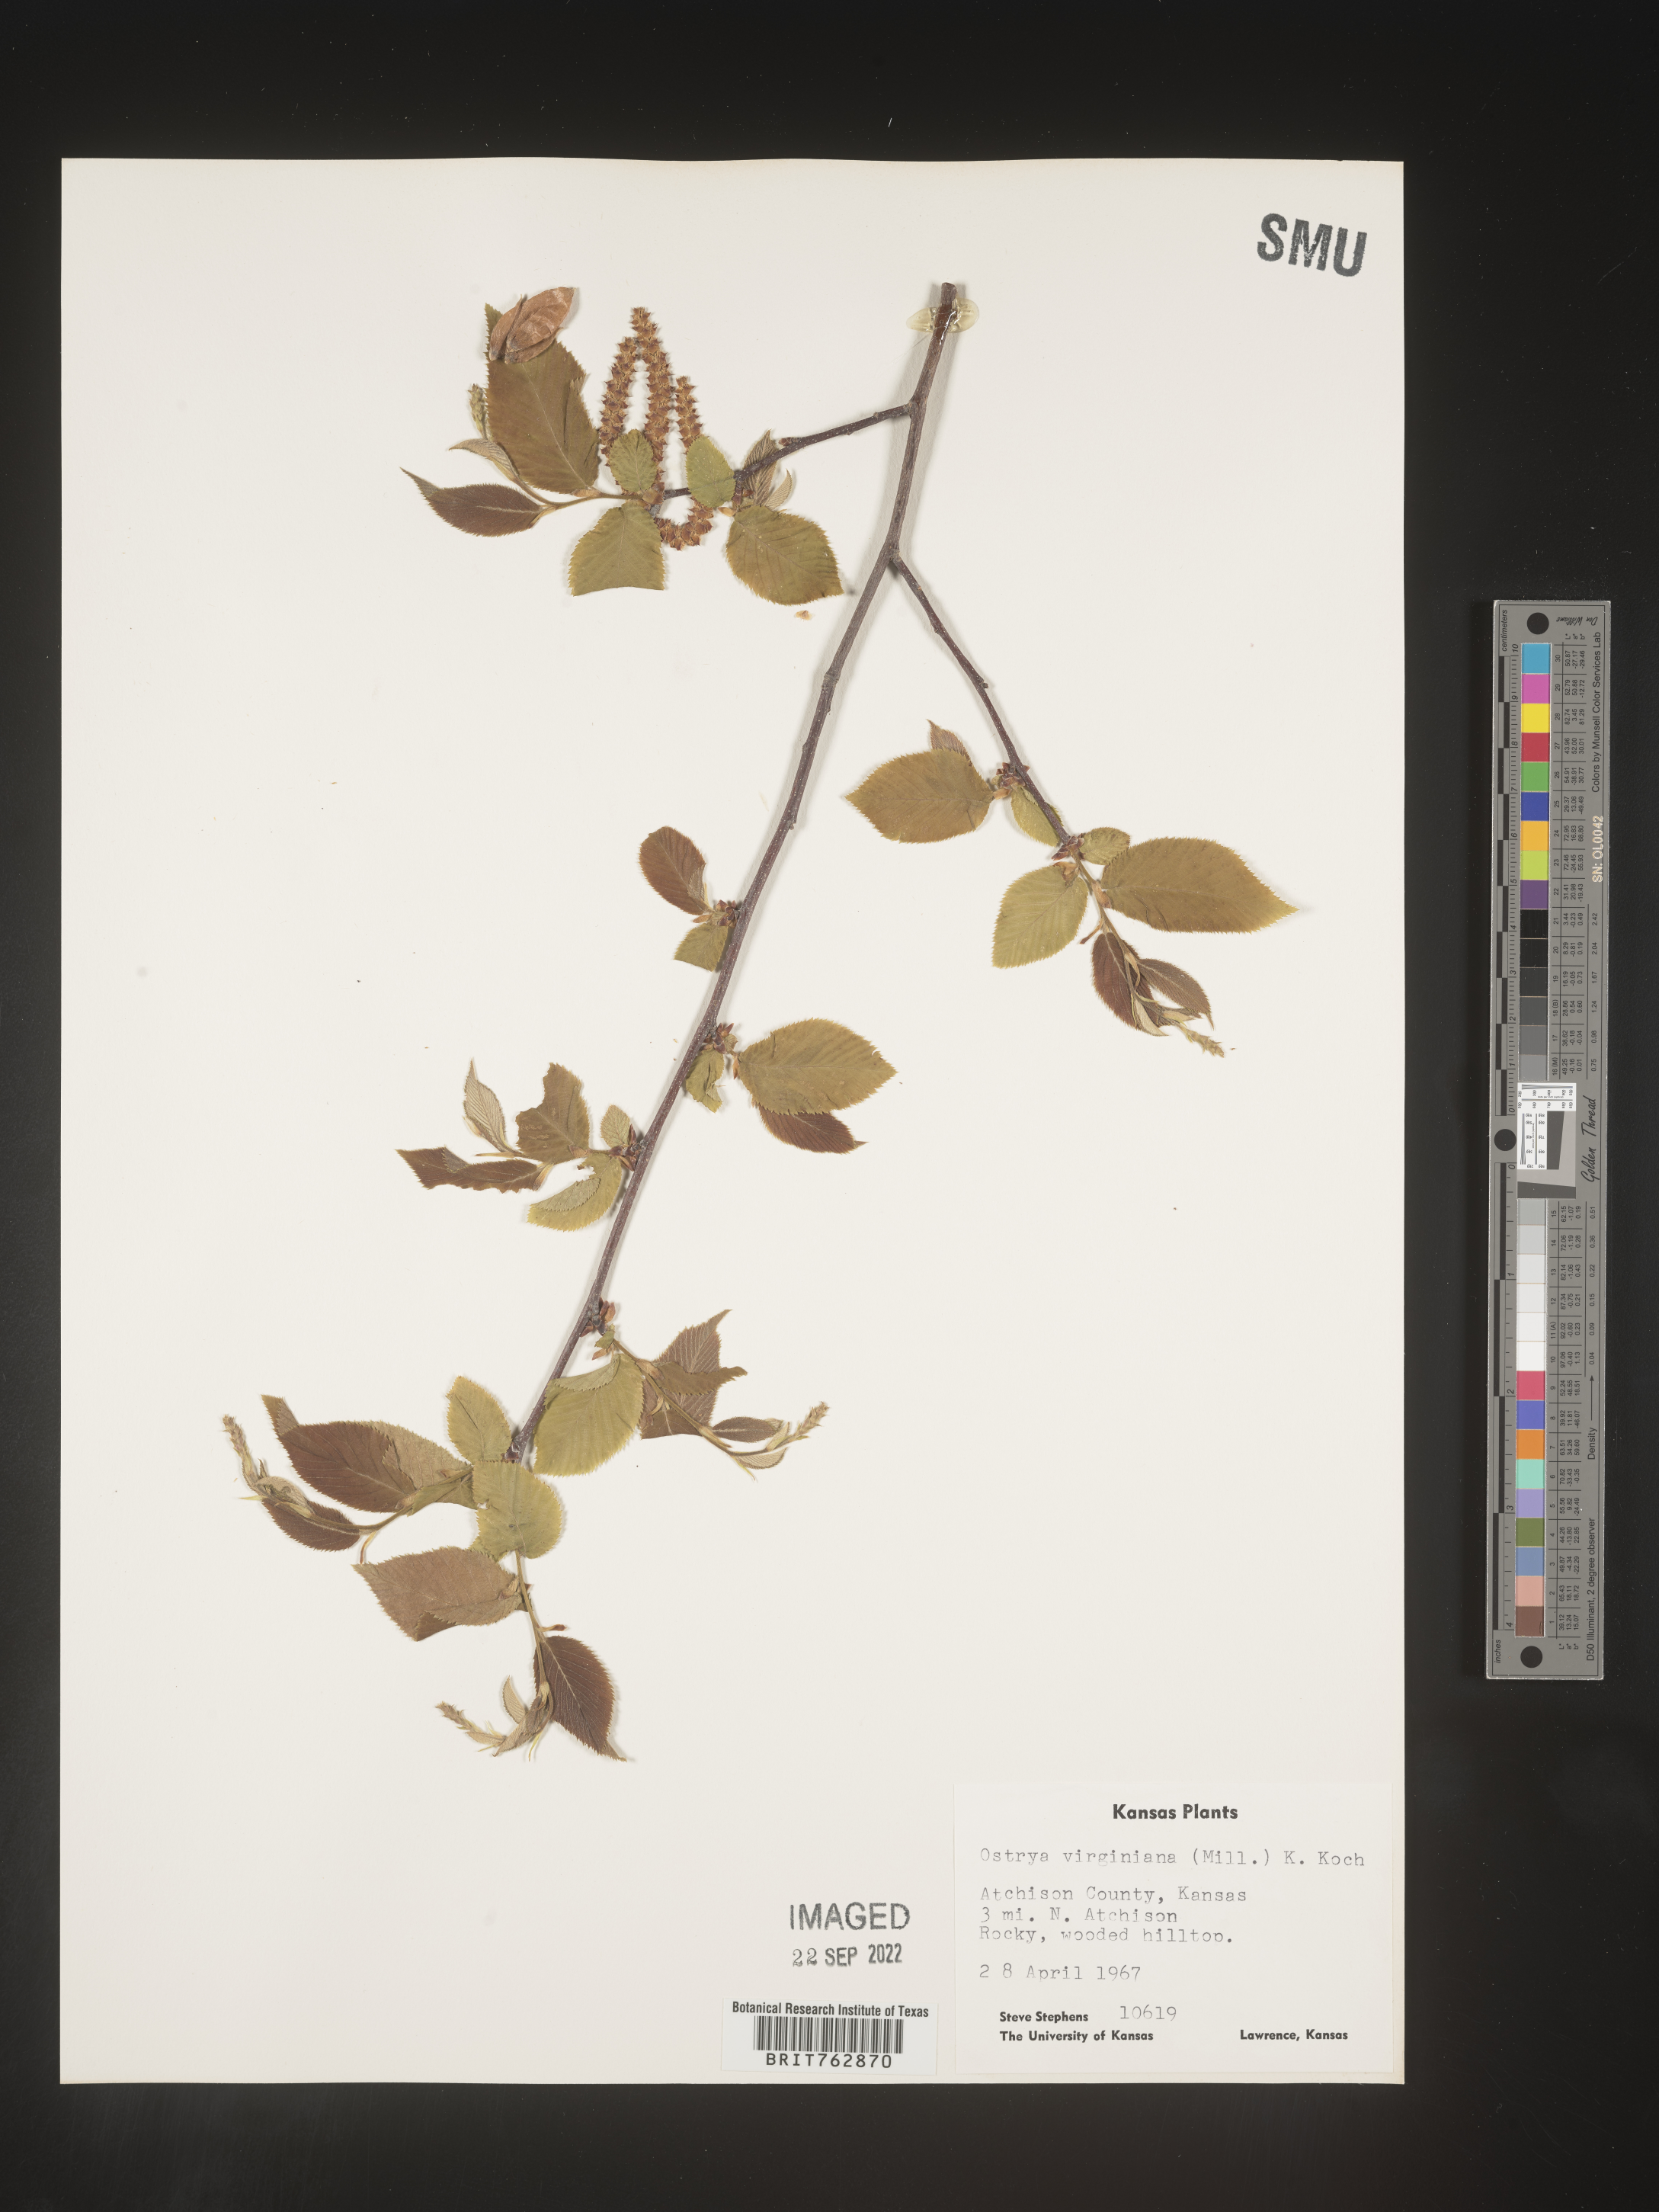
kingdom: Plantae
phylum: Tracheophyta
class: Magnoliopsida
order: Fagales
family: Betulaceae
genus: Ostrya
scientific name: Ostrya virginiana
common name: Ironwood
